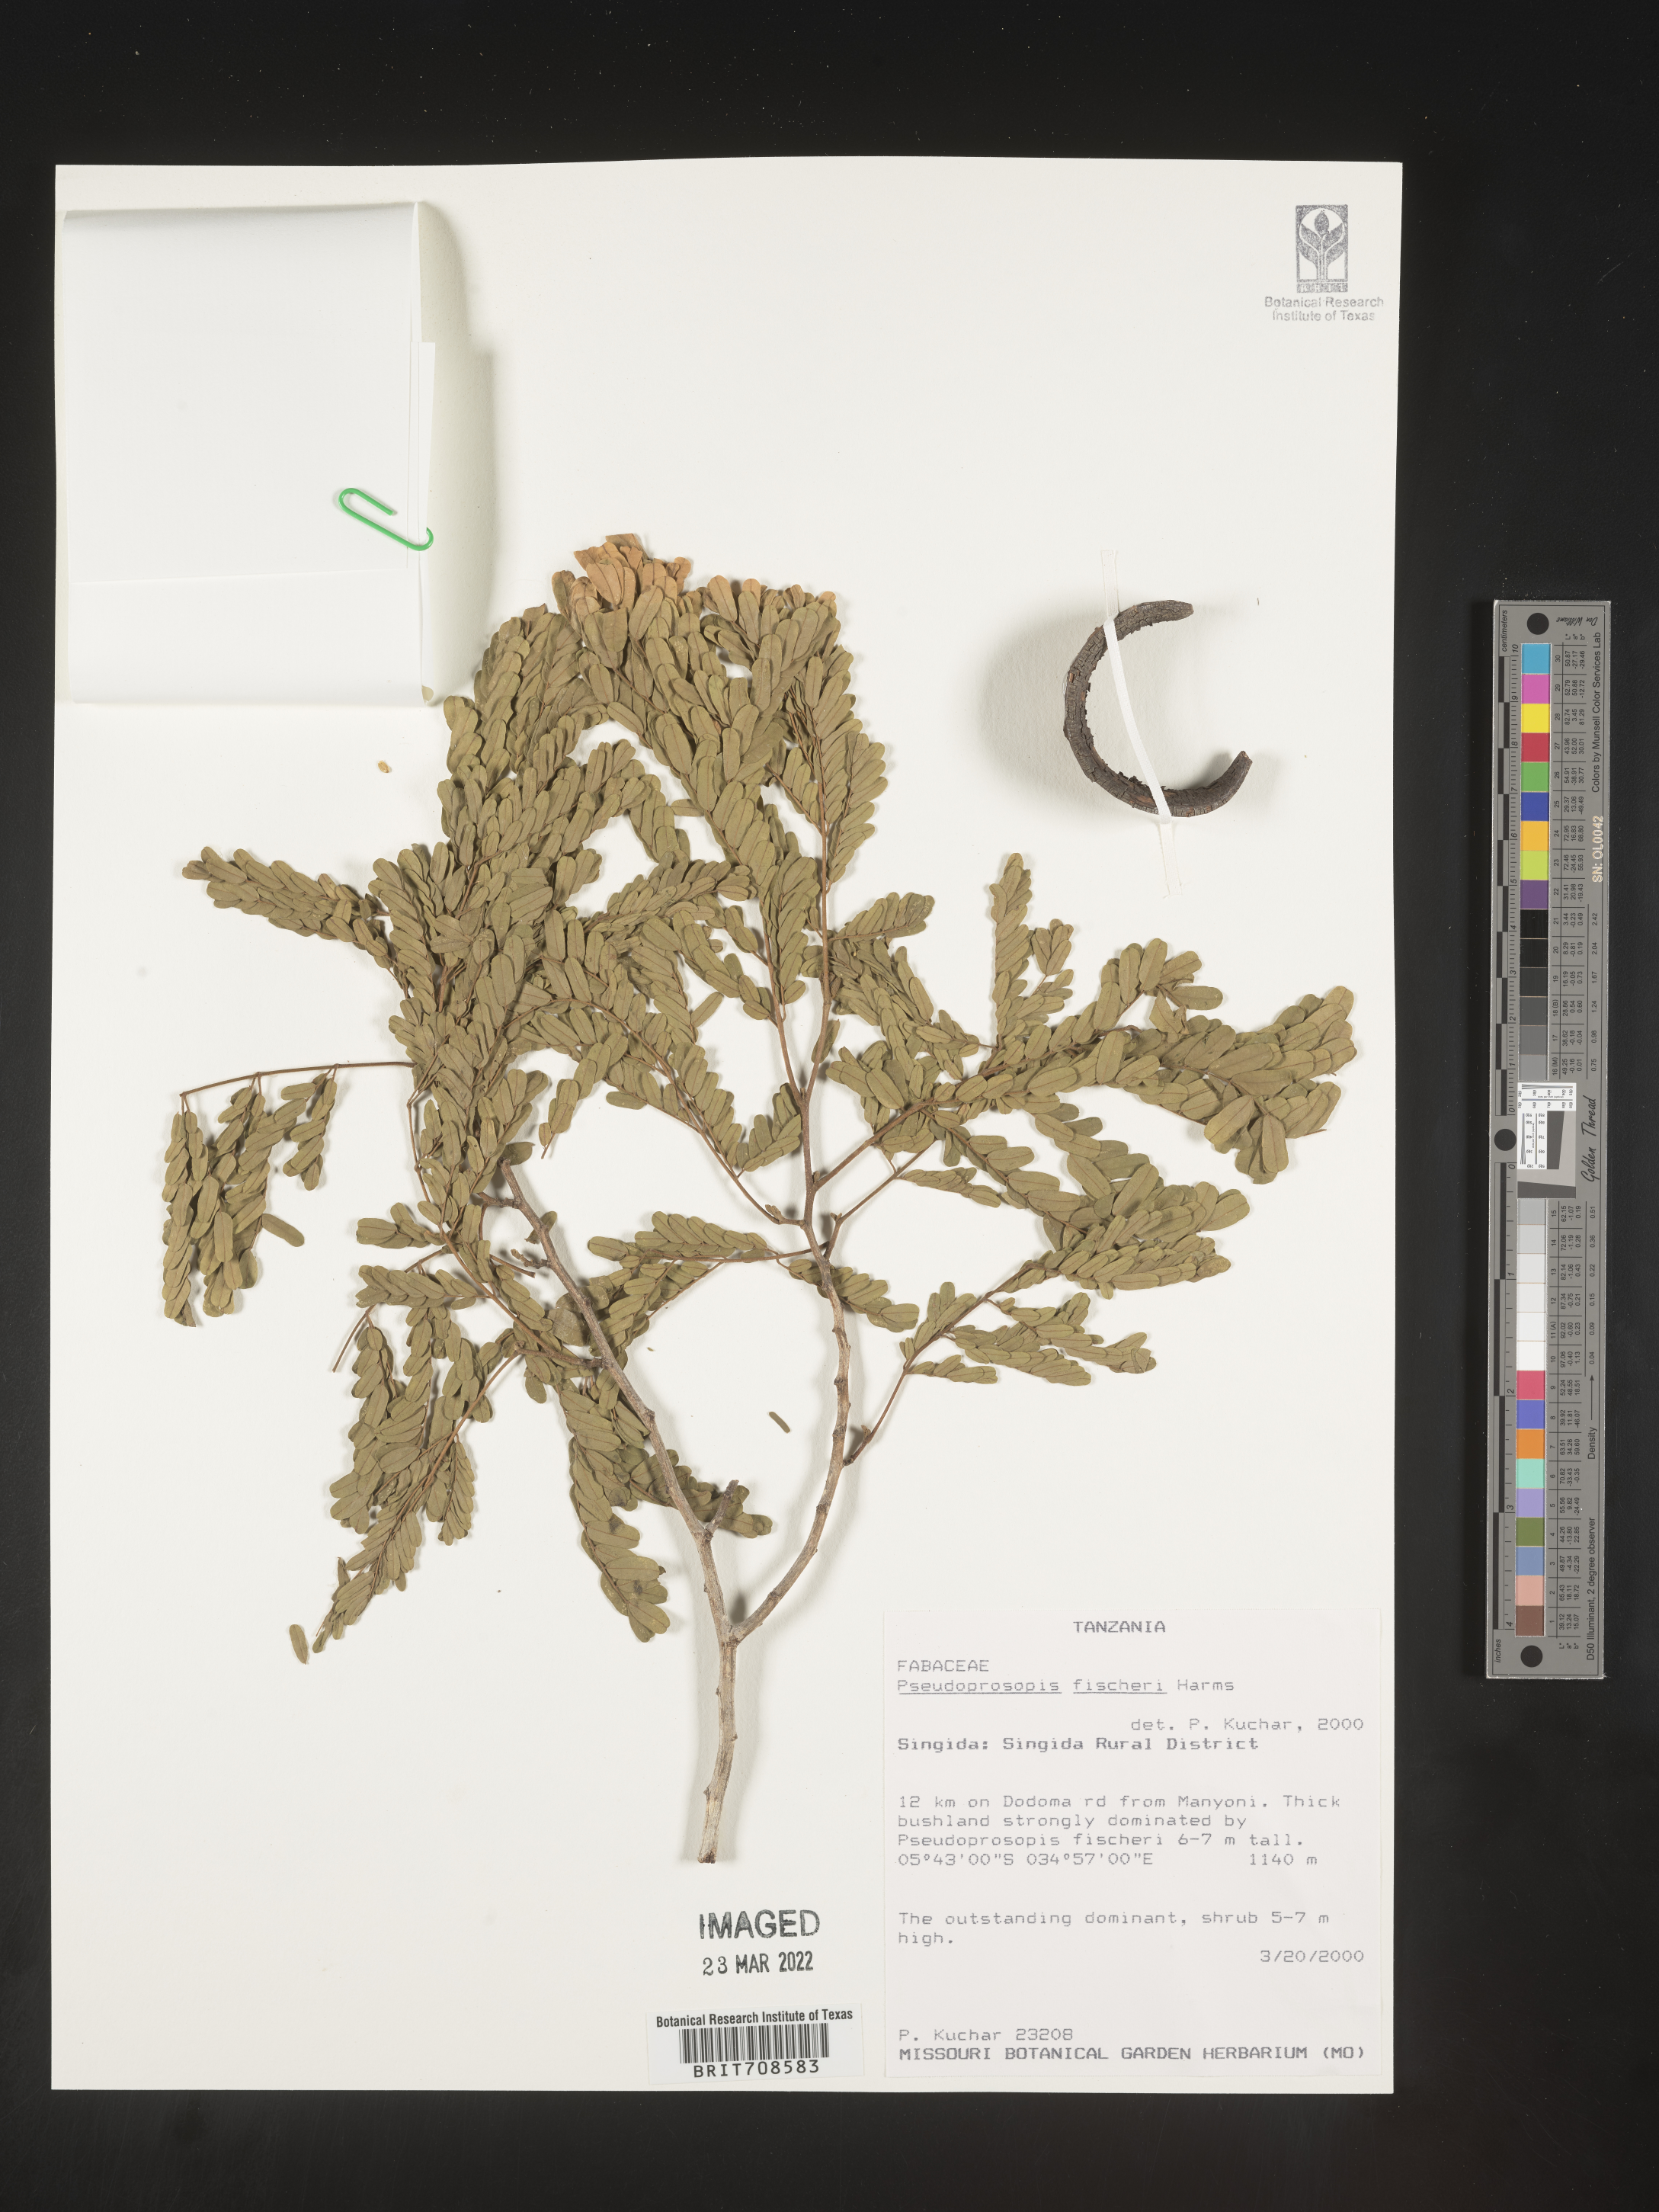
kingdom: Plantae
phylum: Tracheophyta
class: Magnoliopsida
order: Fabales
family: Fabaceae
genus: Pseudoprosopis
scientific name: Pseudoprosopis
